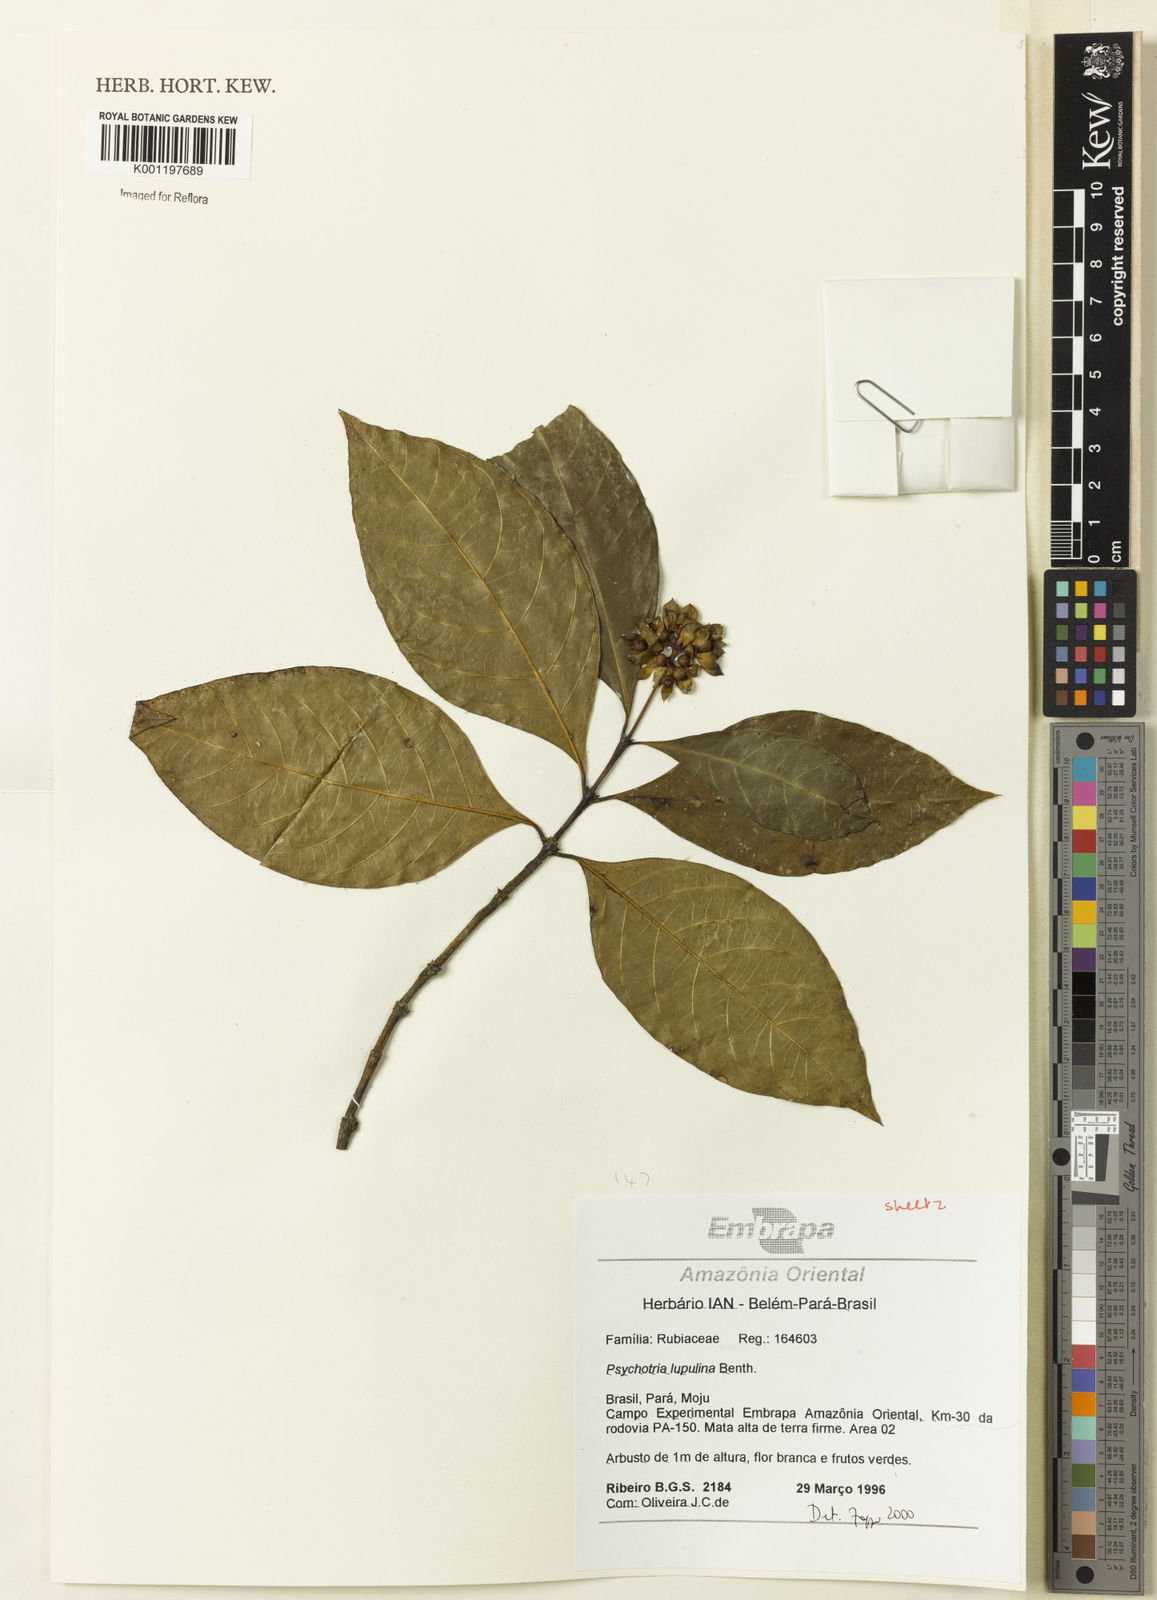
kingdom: Plantae
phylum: Tracheophyta
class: Magnoliopsida
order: Gentianales
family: Rubiaceae
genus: Palicourea
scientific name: Palicourea justiciifolia
